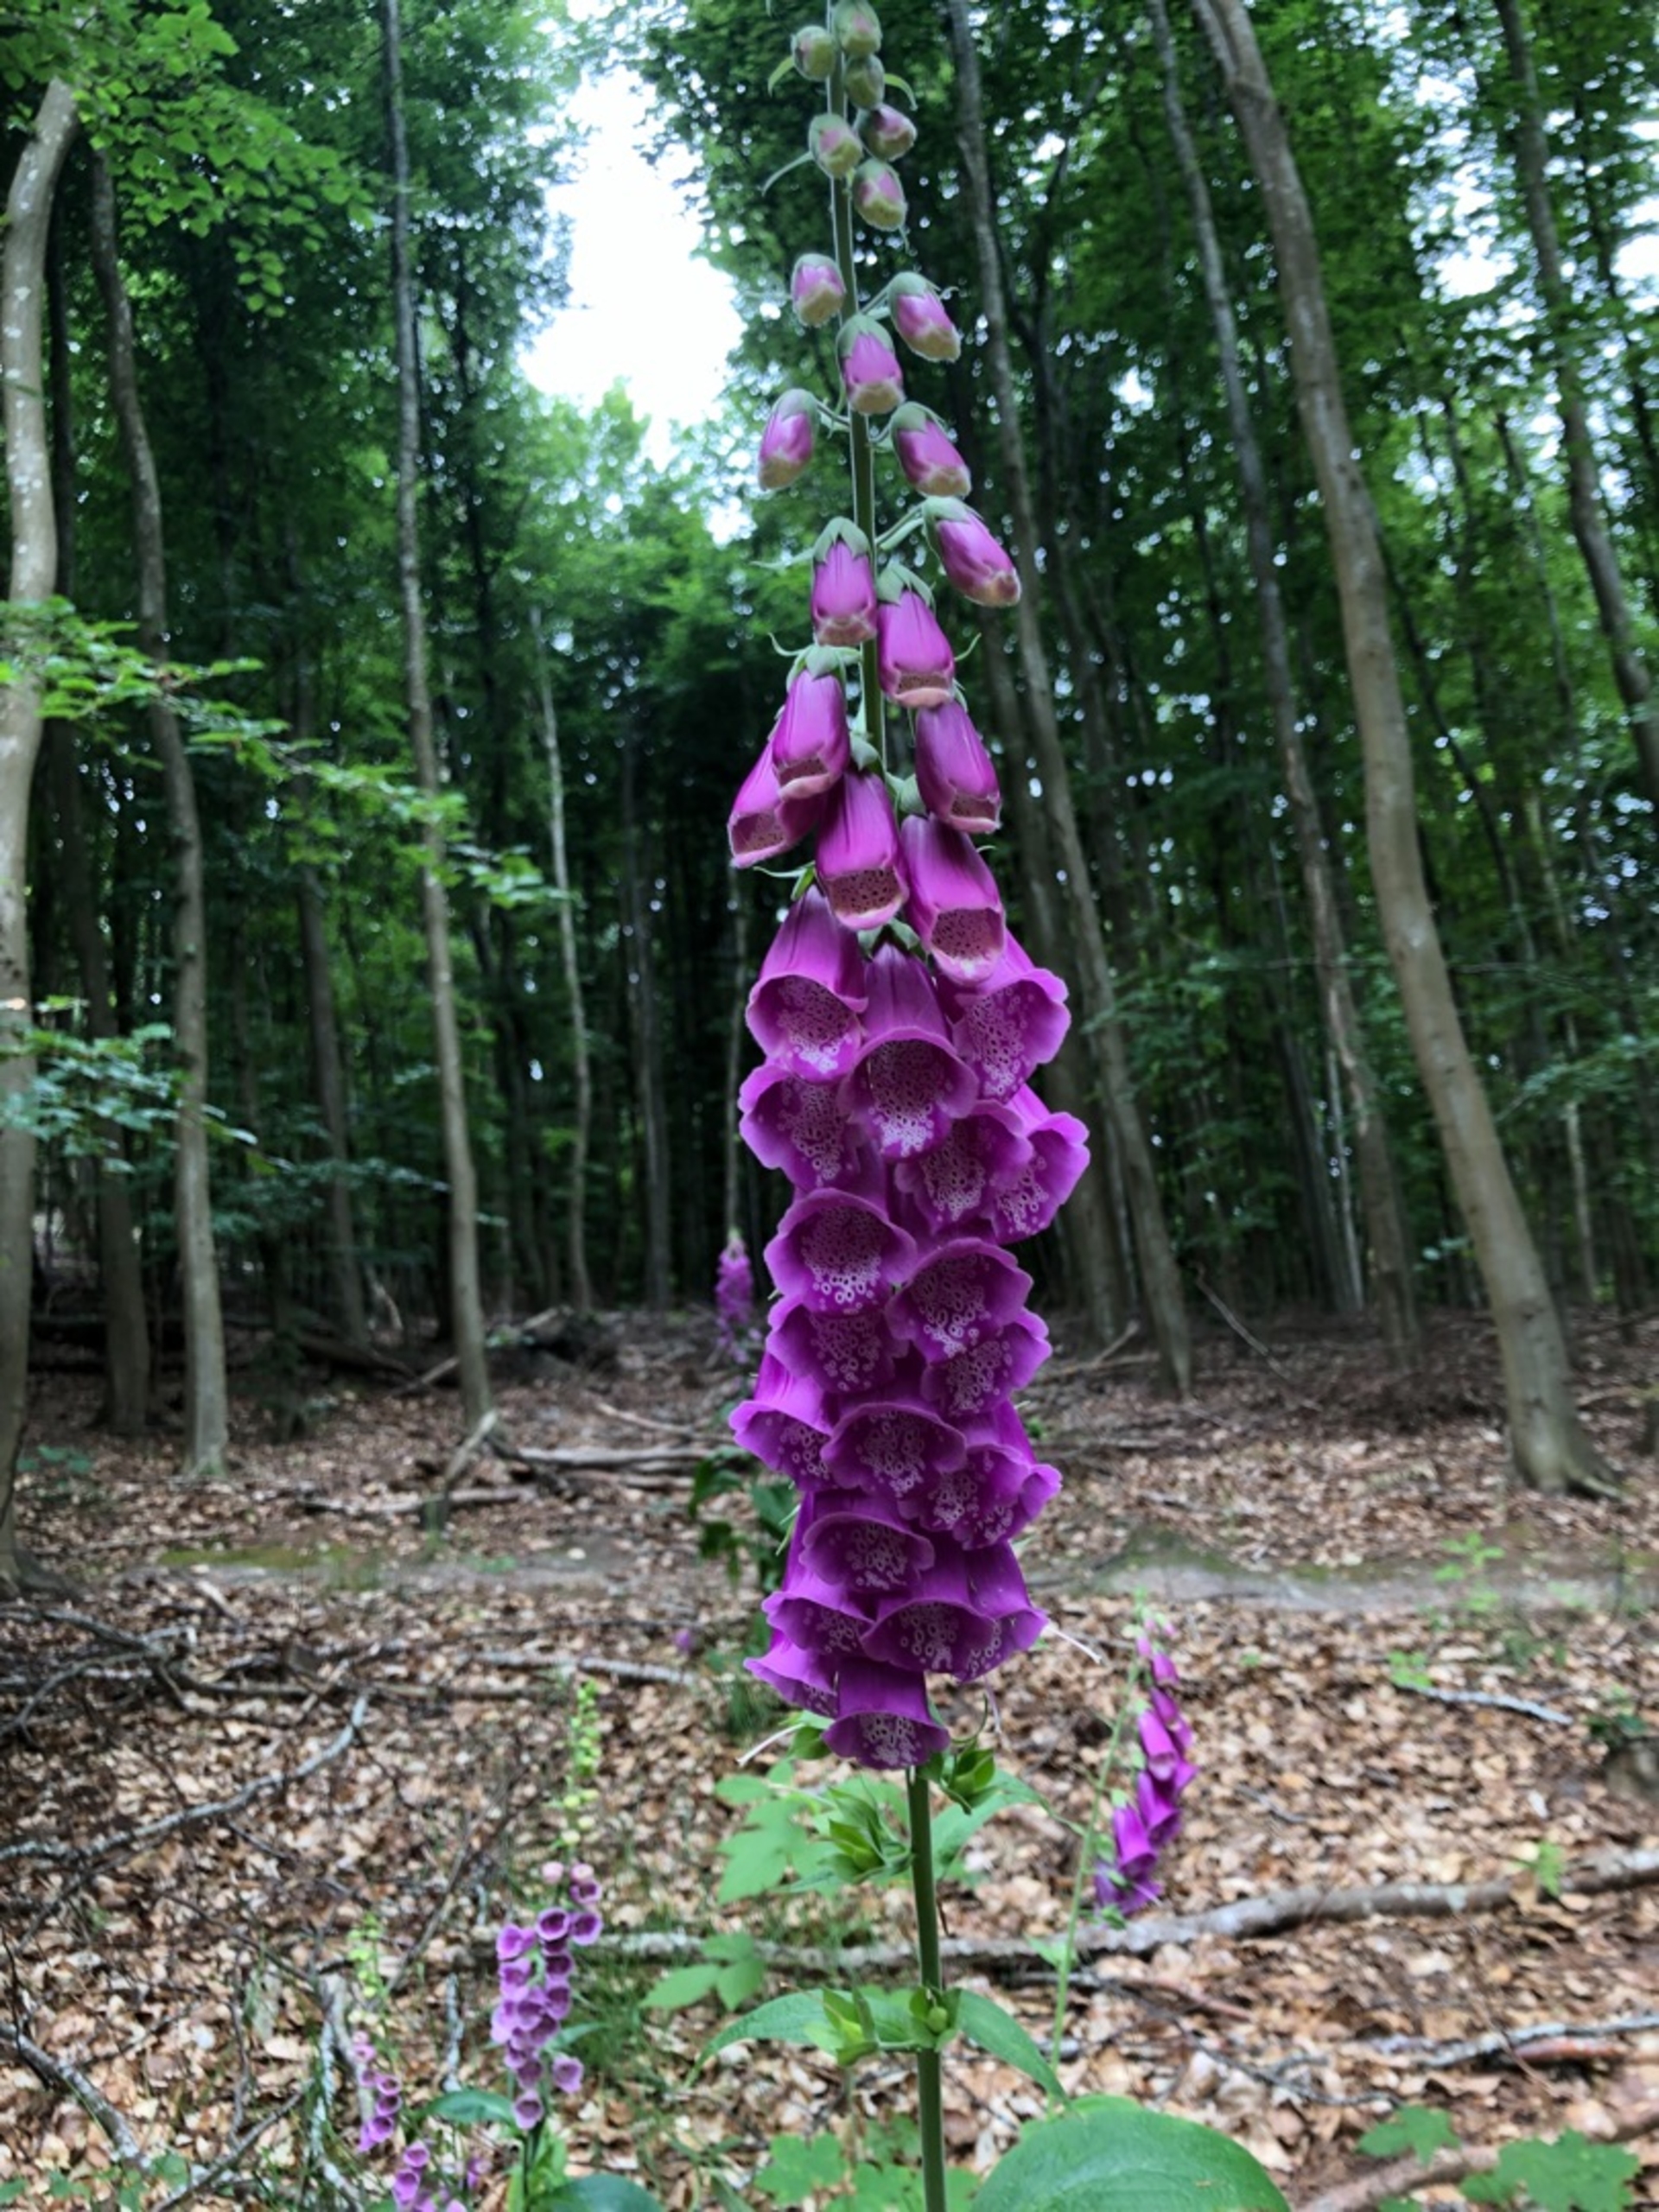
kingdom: Plantae
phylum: Tracheophyta
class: Magnoliopsida
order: Lamiales
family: Plantaginaceae
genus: Digitalis
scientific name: Digitalis purpurea
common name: Almindelig fingerbøl
